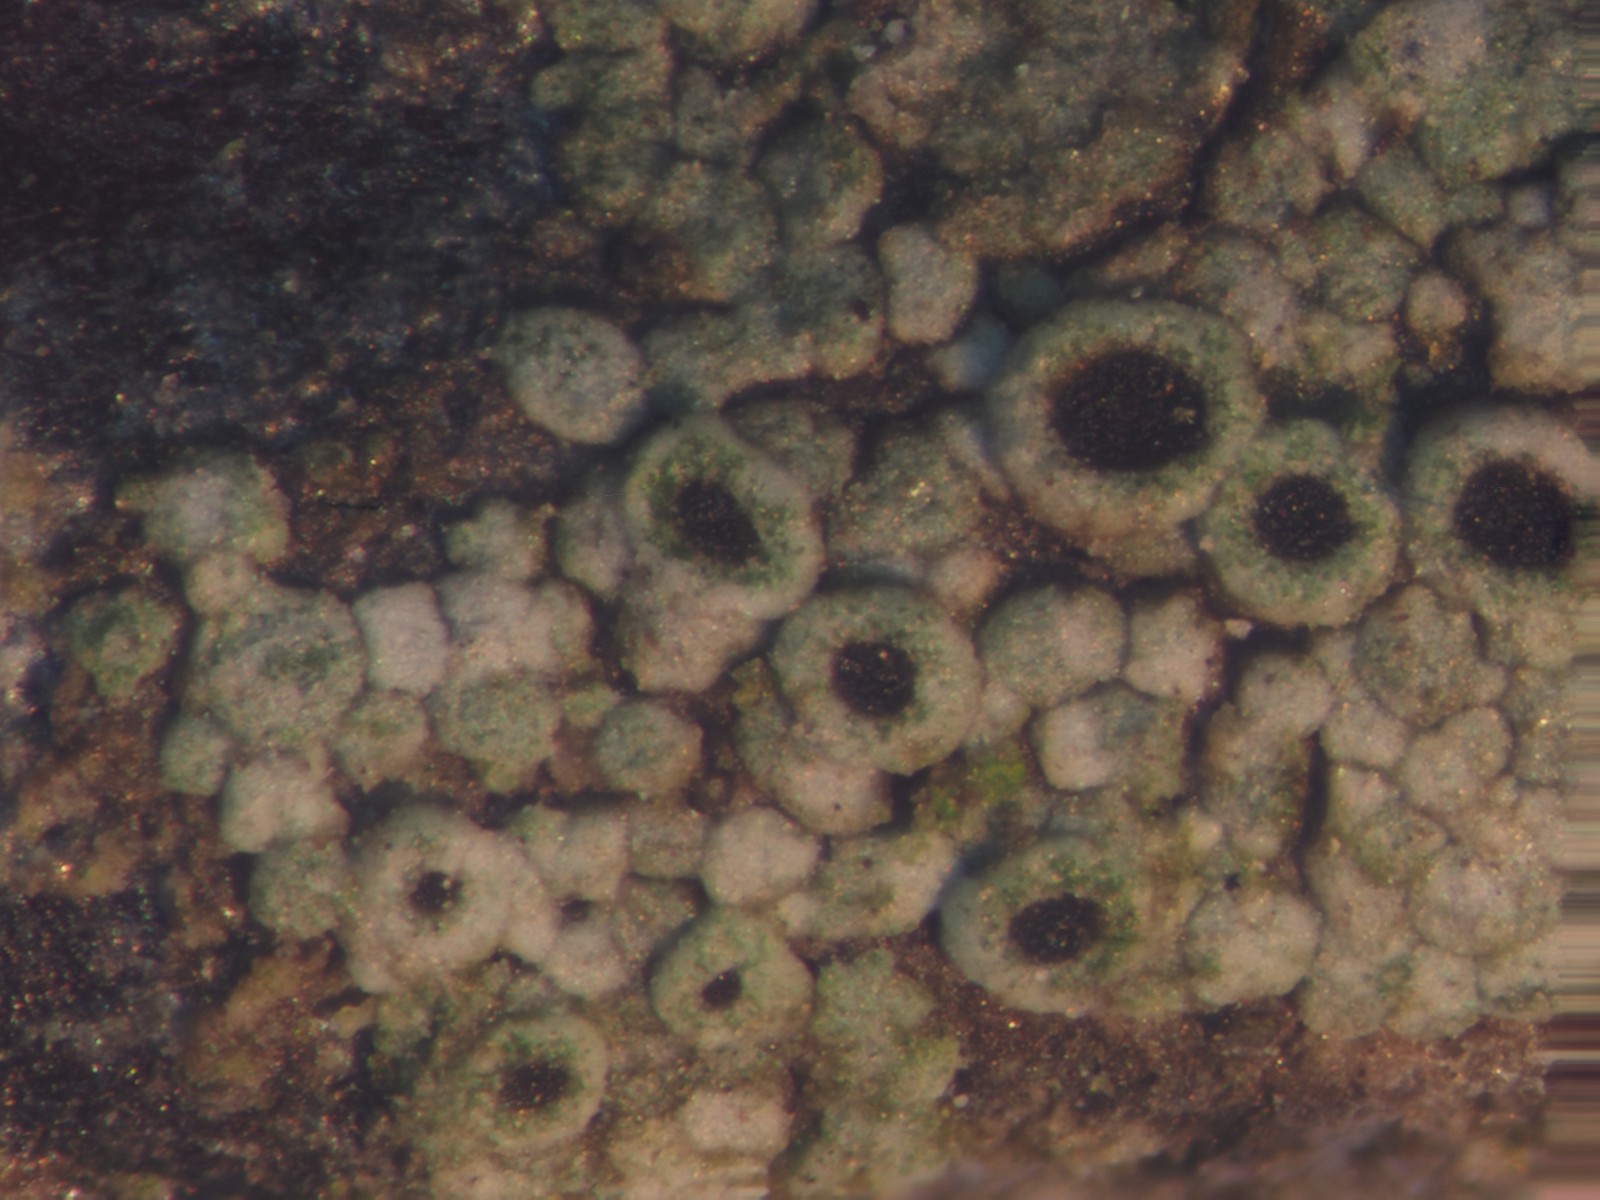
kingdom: Fungi
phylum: Ascomycota
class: Lecanoromycetes
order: Caliciales
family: Physciaceae
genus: Rinodina
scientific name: Rinodina sophodes
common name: aske-knaplav
